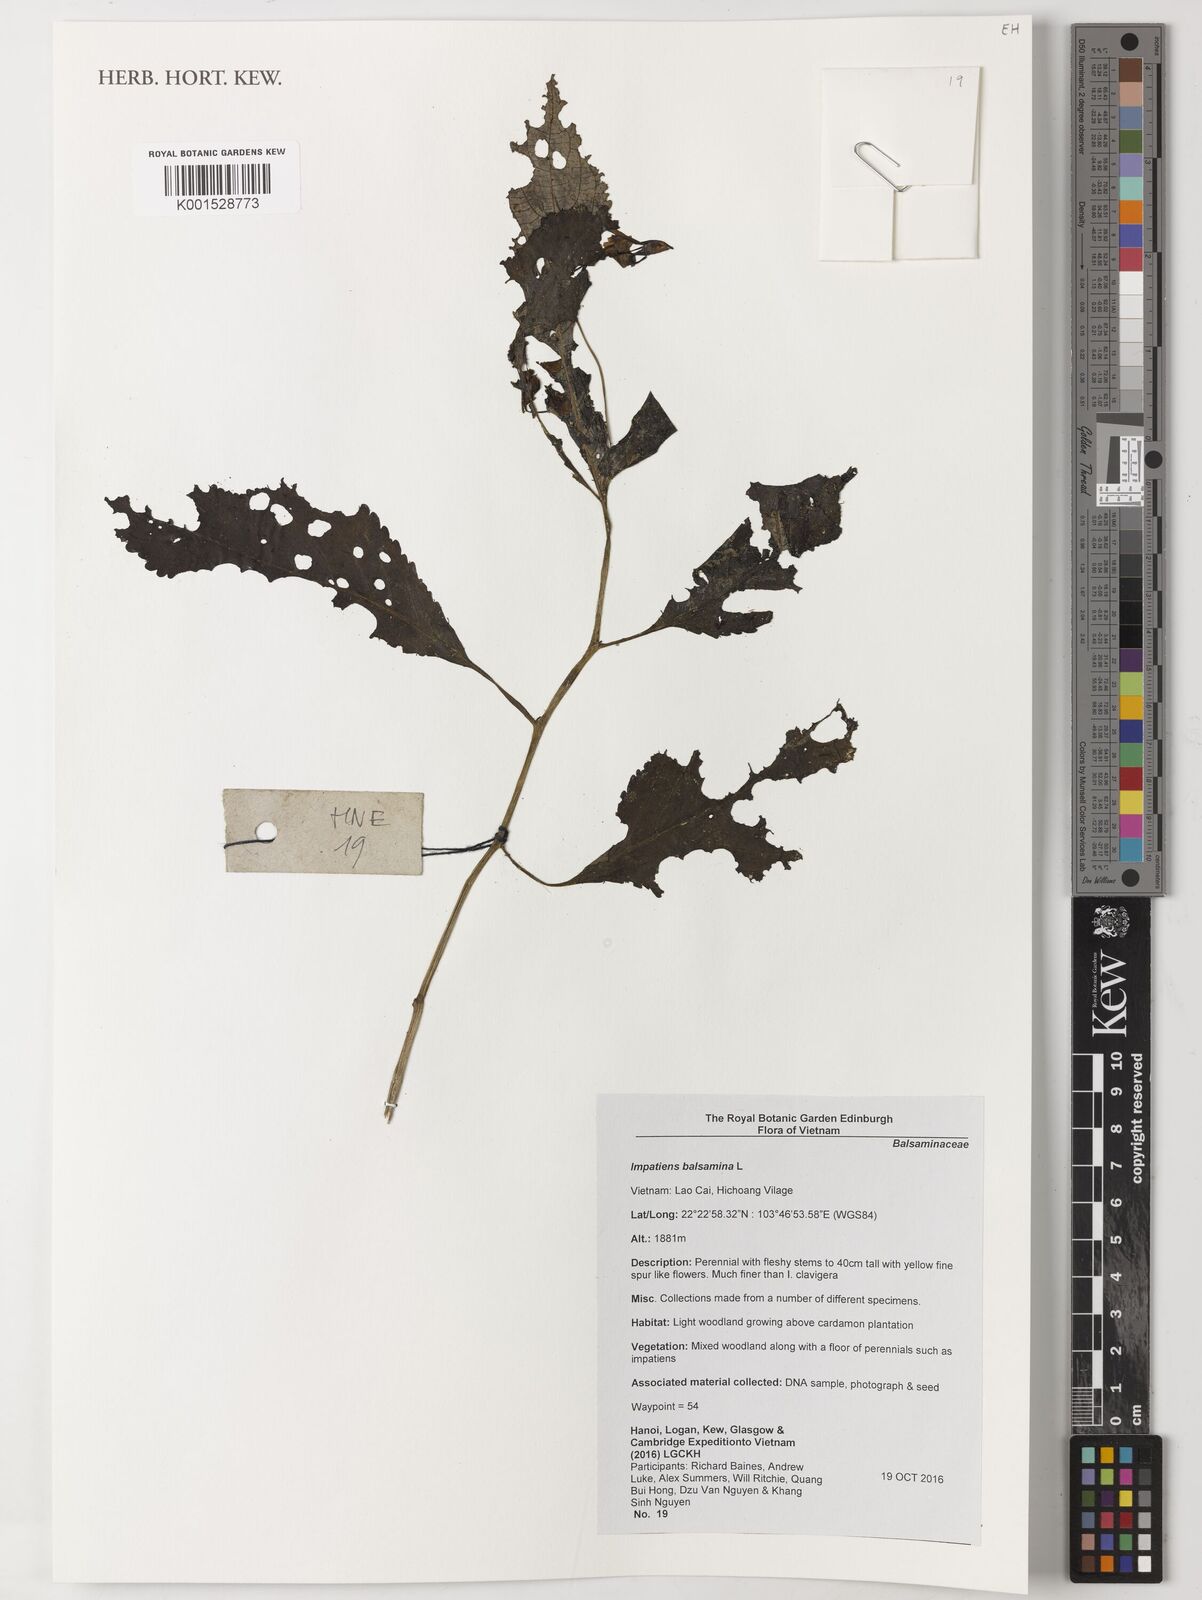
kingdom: Plantae
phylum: Tracheophyta
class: Magnoliopsida
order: Ericales
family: Balsaminaceae
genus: Impatiens
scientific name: Impatiens balsamina
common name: Balsam
